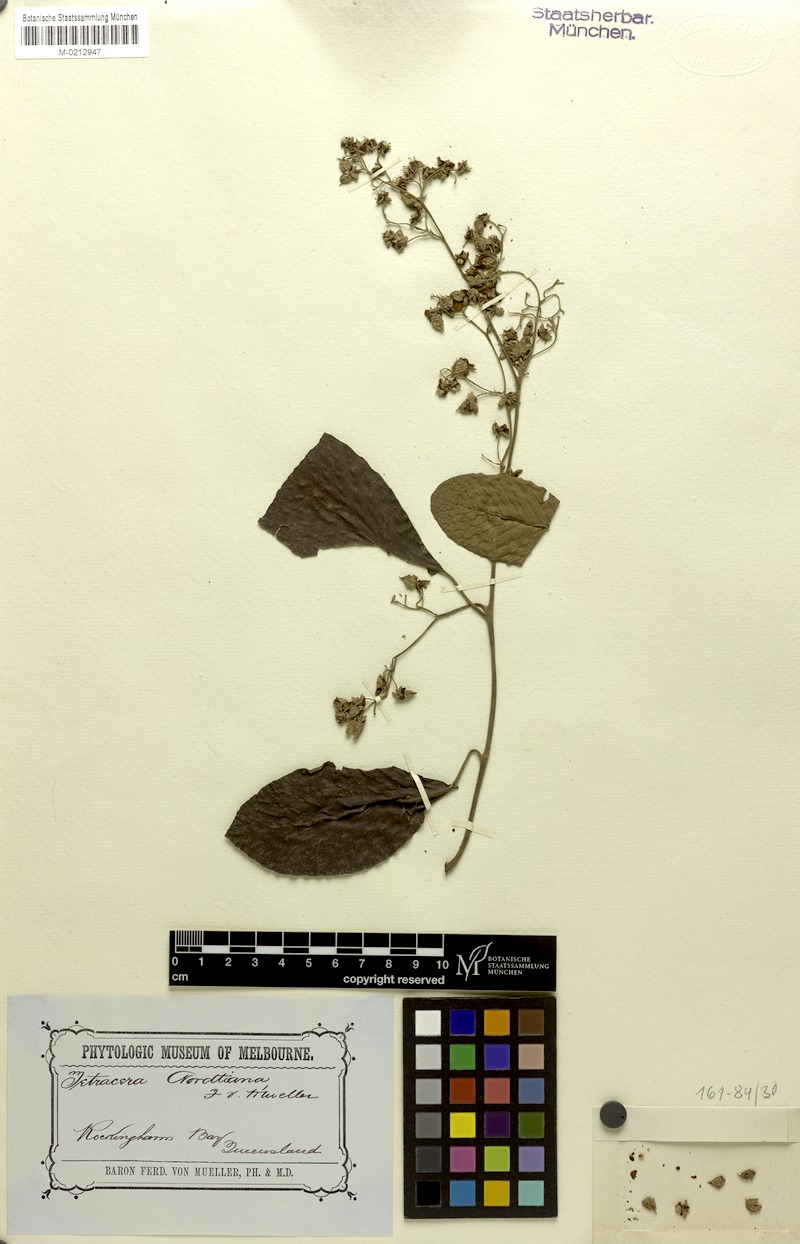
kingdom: Plantae
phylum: Tracheophyta
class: Magnoliopsida
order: Dilleniales
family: Dilleniaceae
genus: Tetracera
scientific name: Tetracera nordtiana
